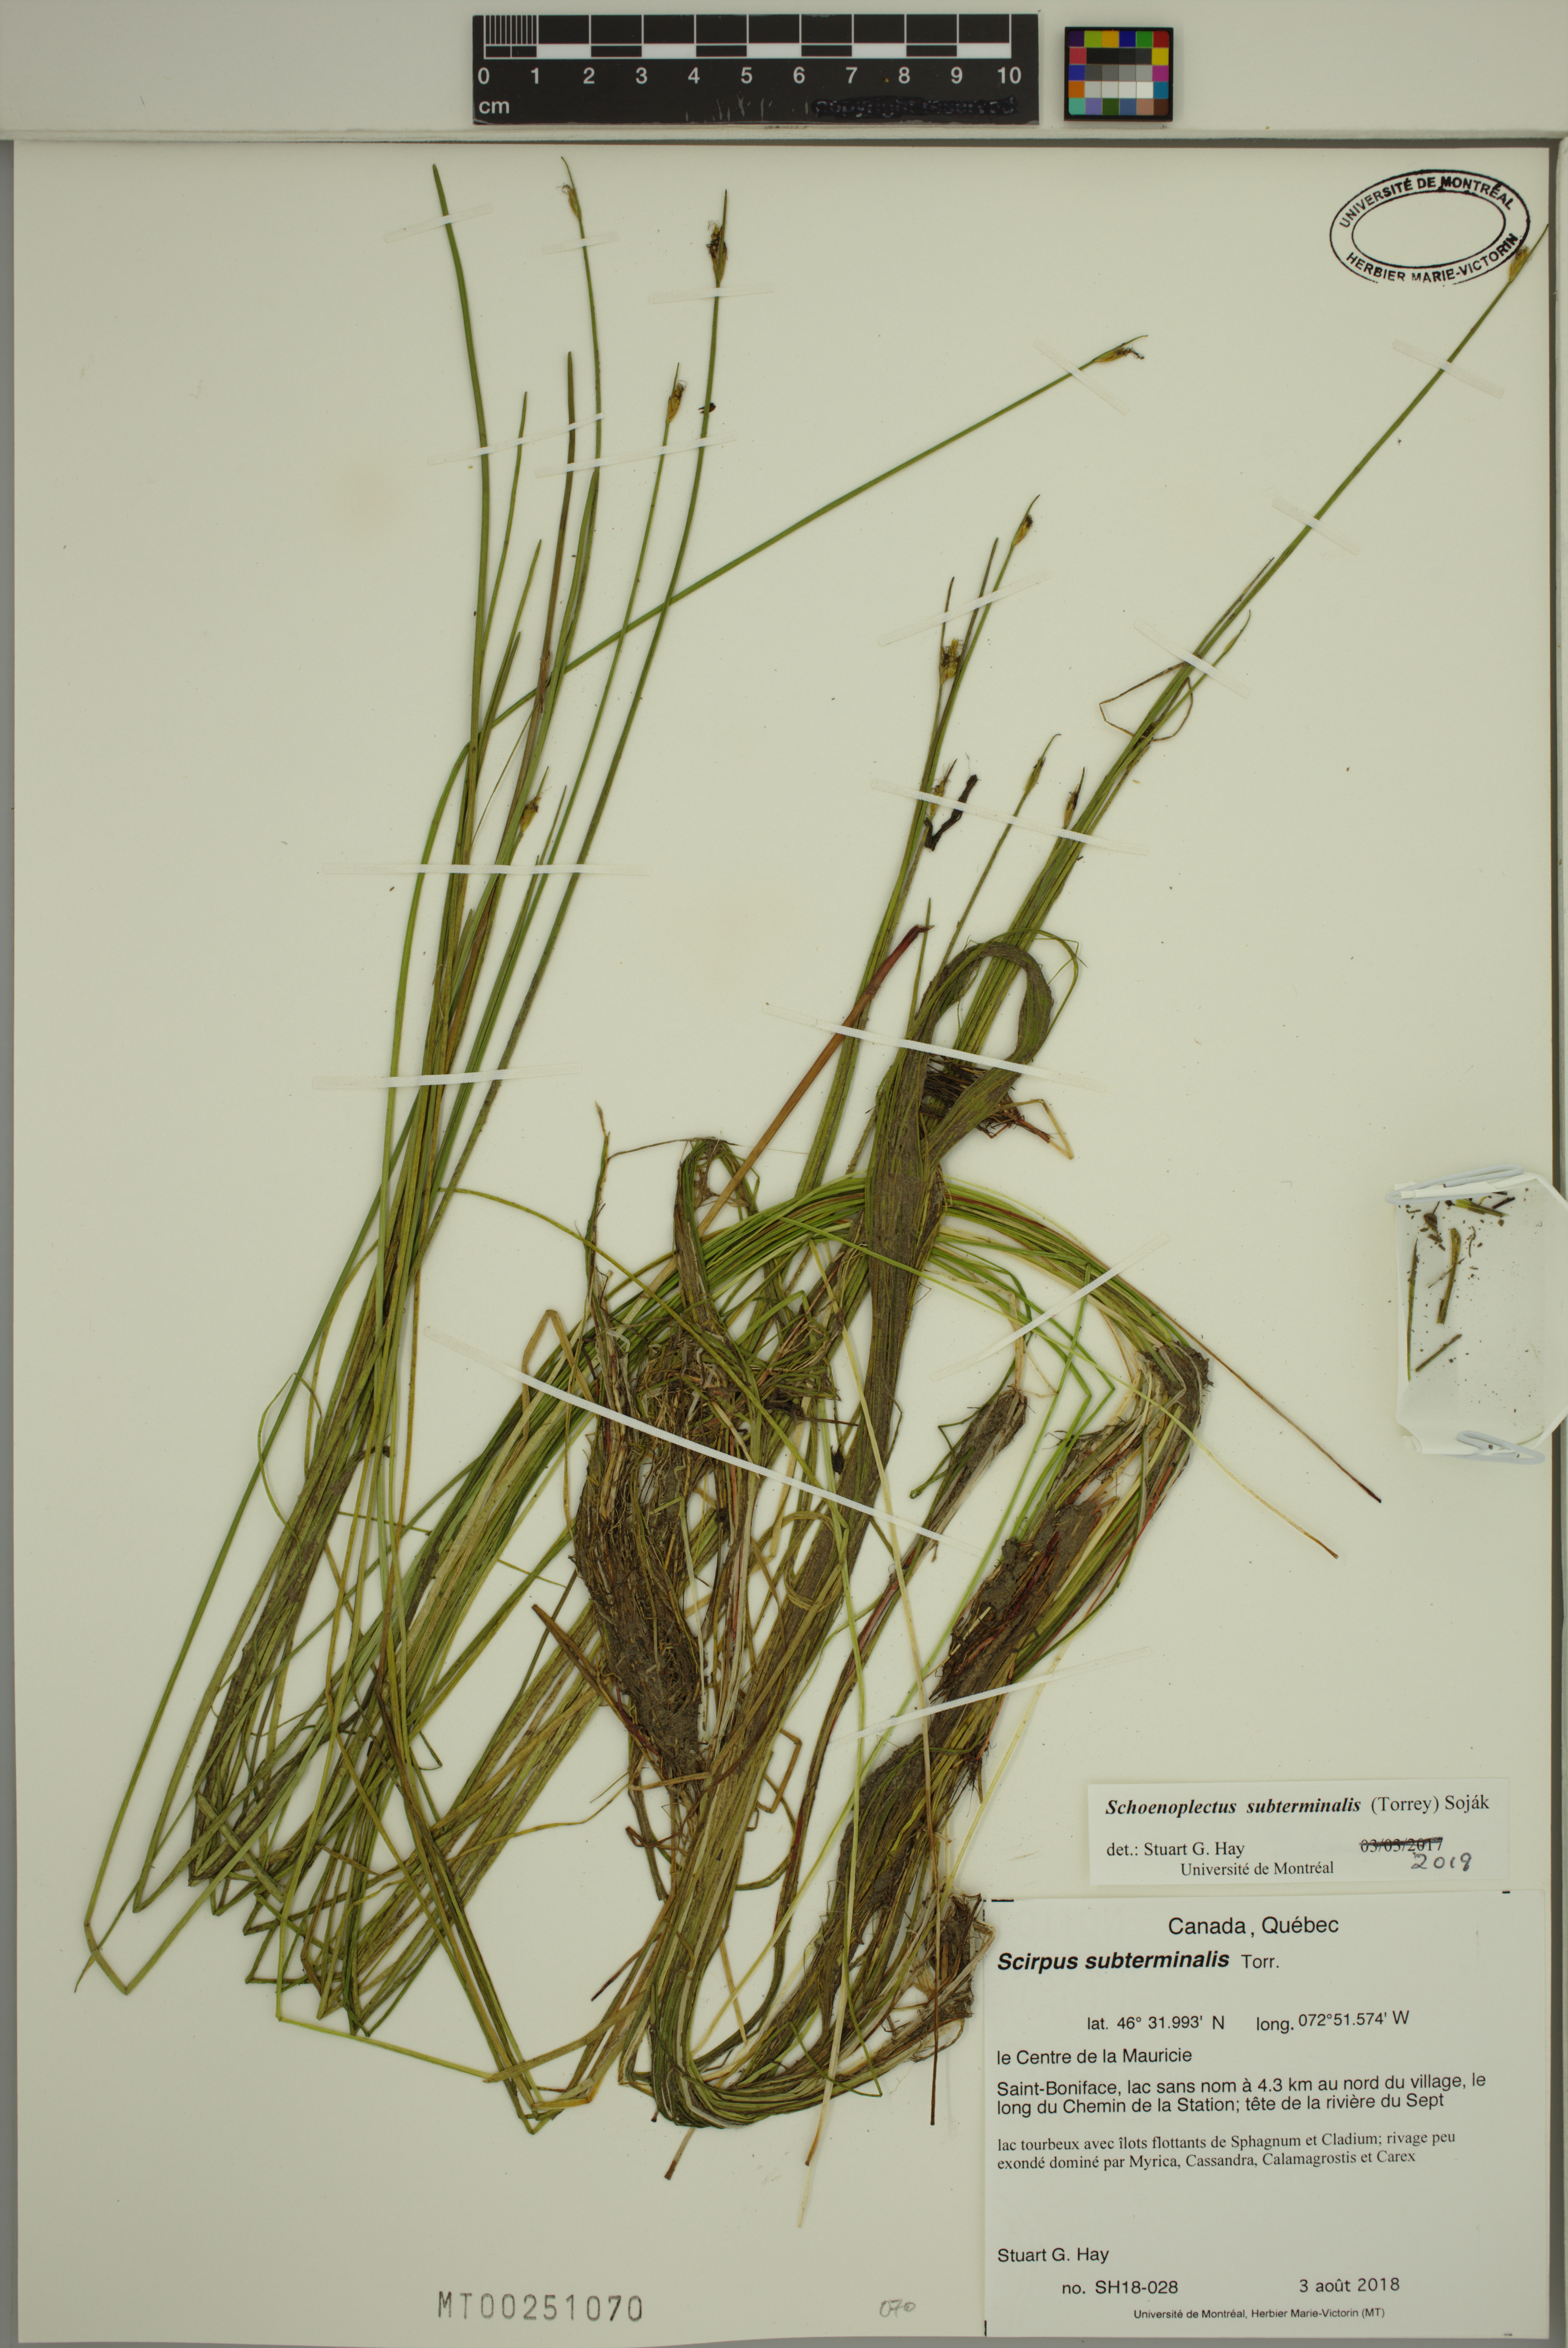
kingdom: Plantae
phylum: Tracheophyta
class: Liliopsida
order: Poales
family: Cyperaceae
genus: Schoenoplectus
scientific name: Schoenoplectus subterminalis
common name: Swaying bulrush
